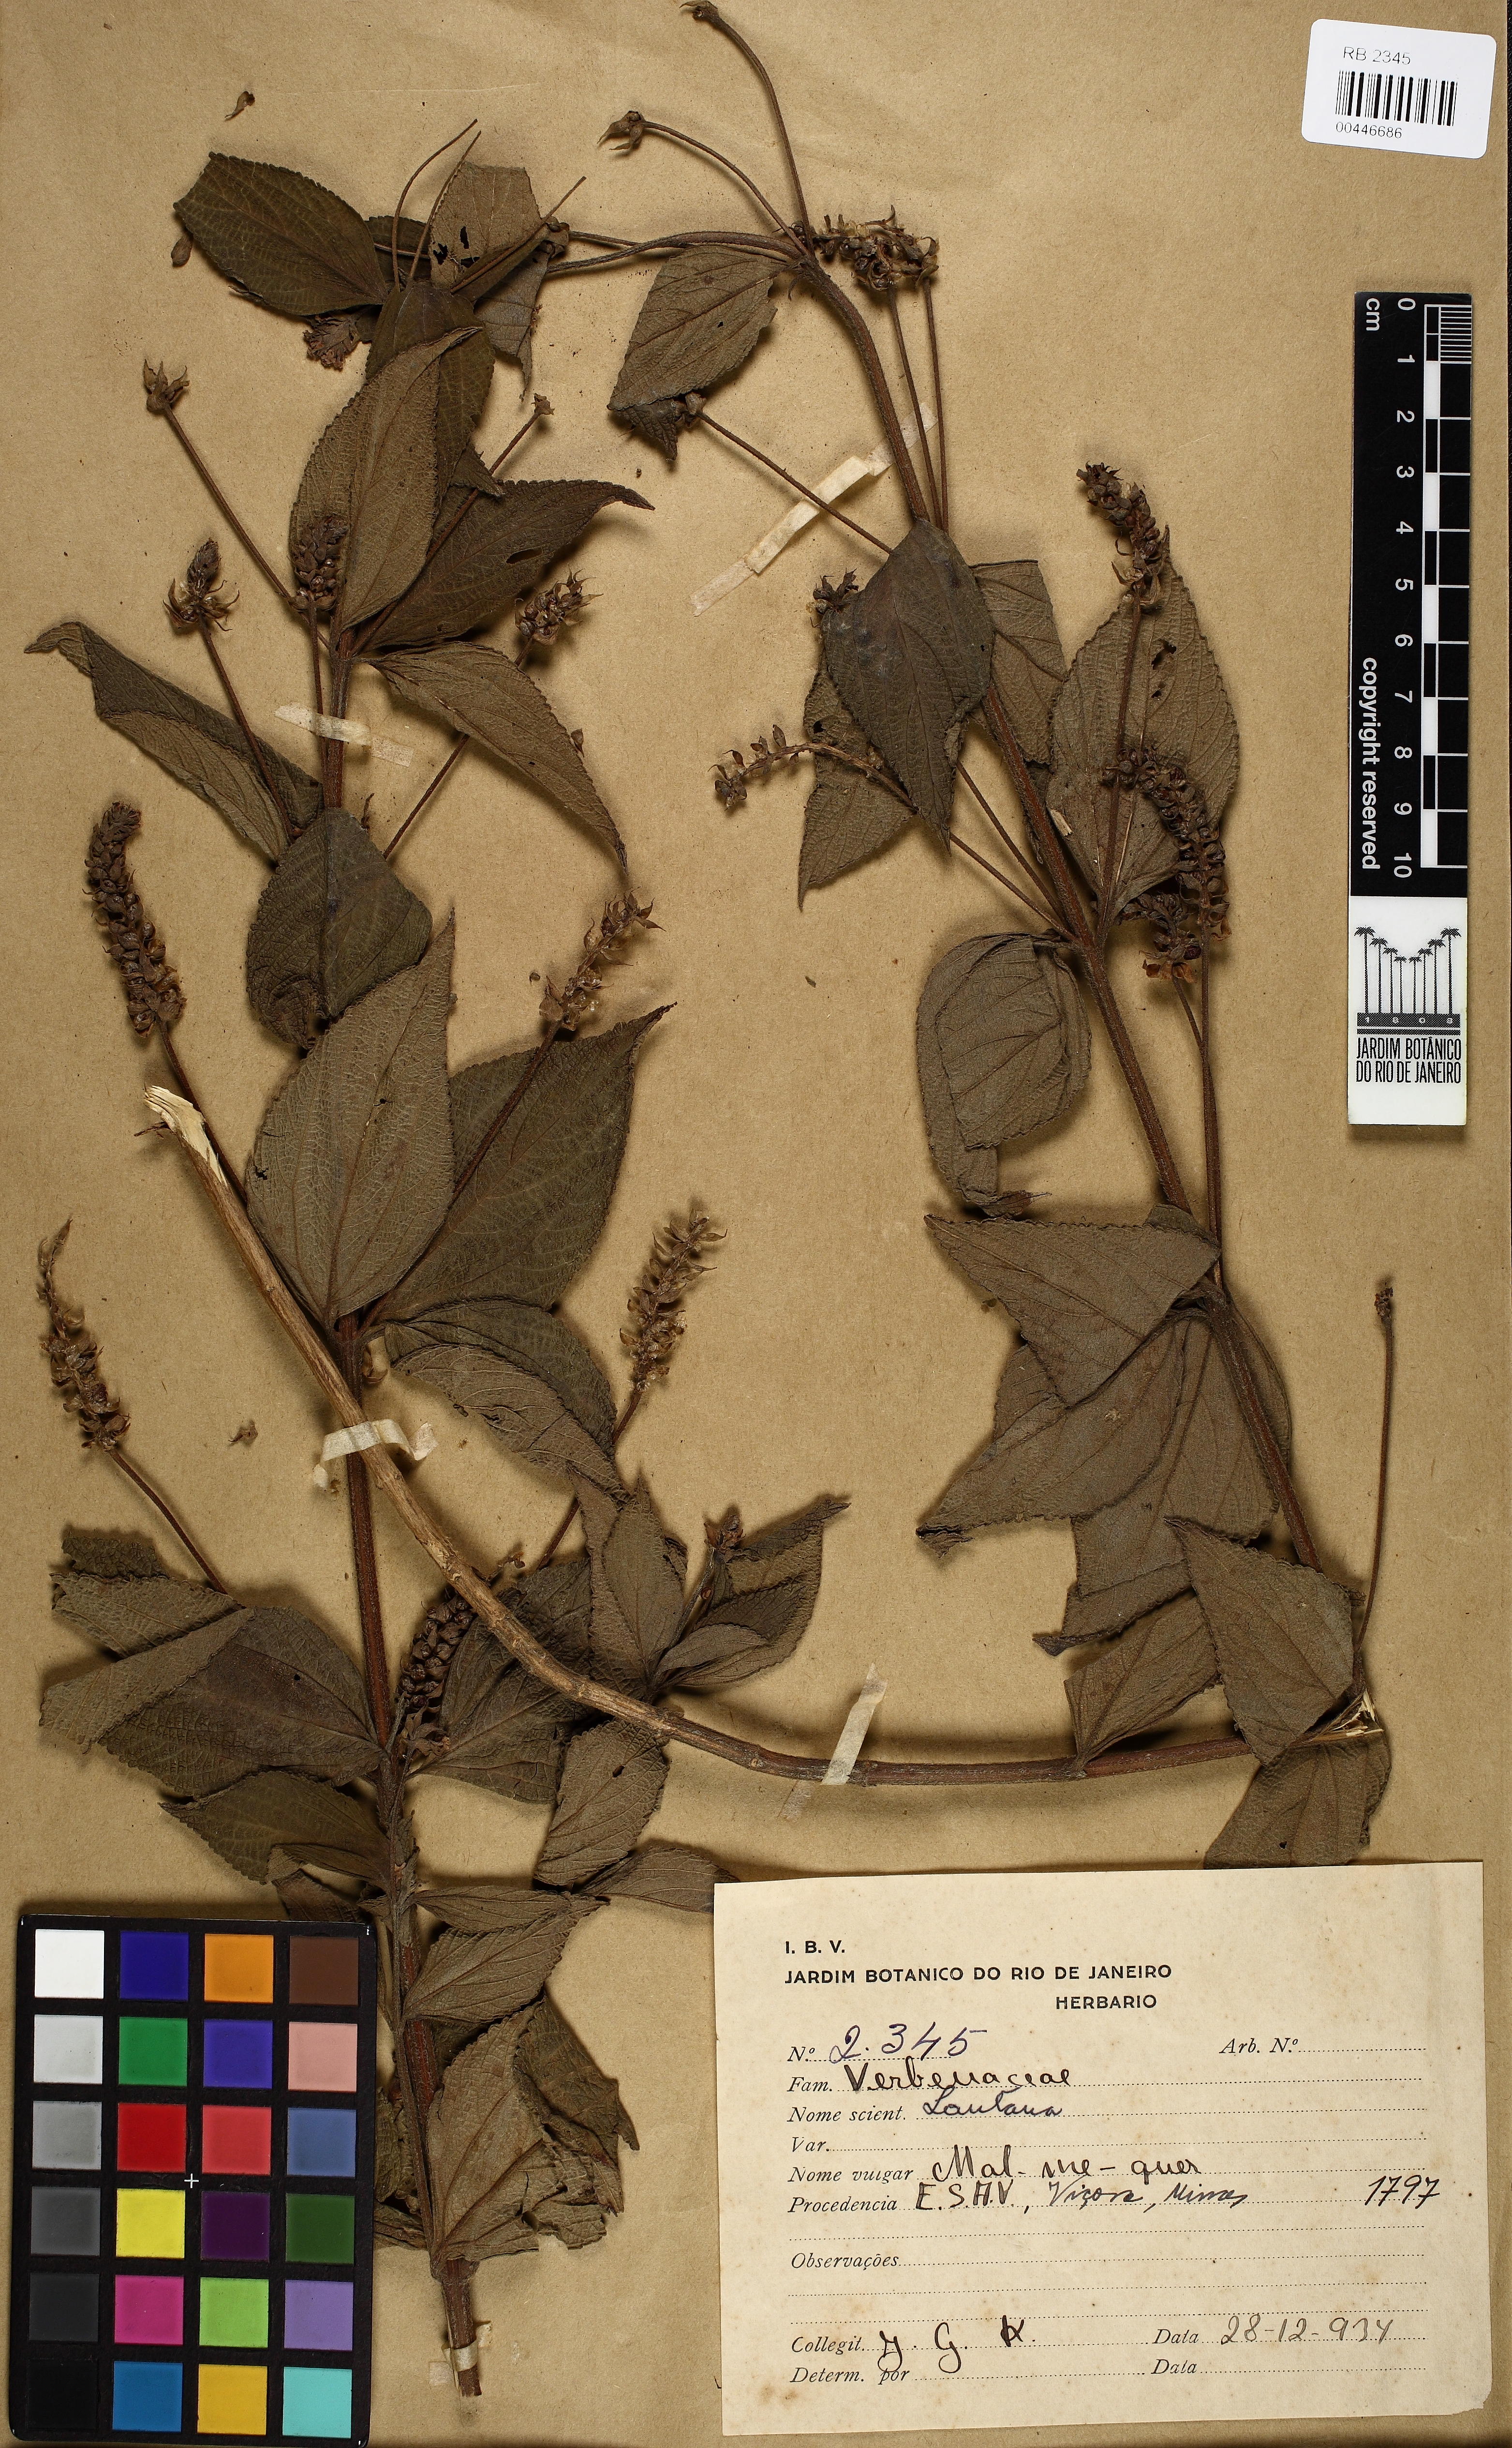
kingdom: Plantae
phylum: Tracheophyta
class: Magnoliopsida
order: Lamiales
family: Verbenaceae
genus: Lantana
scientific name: Lantana
